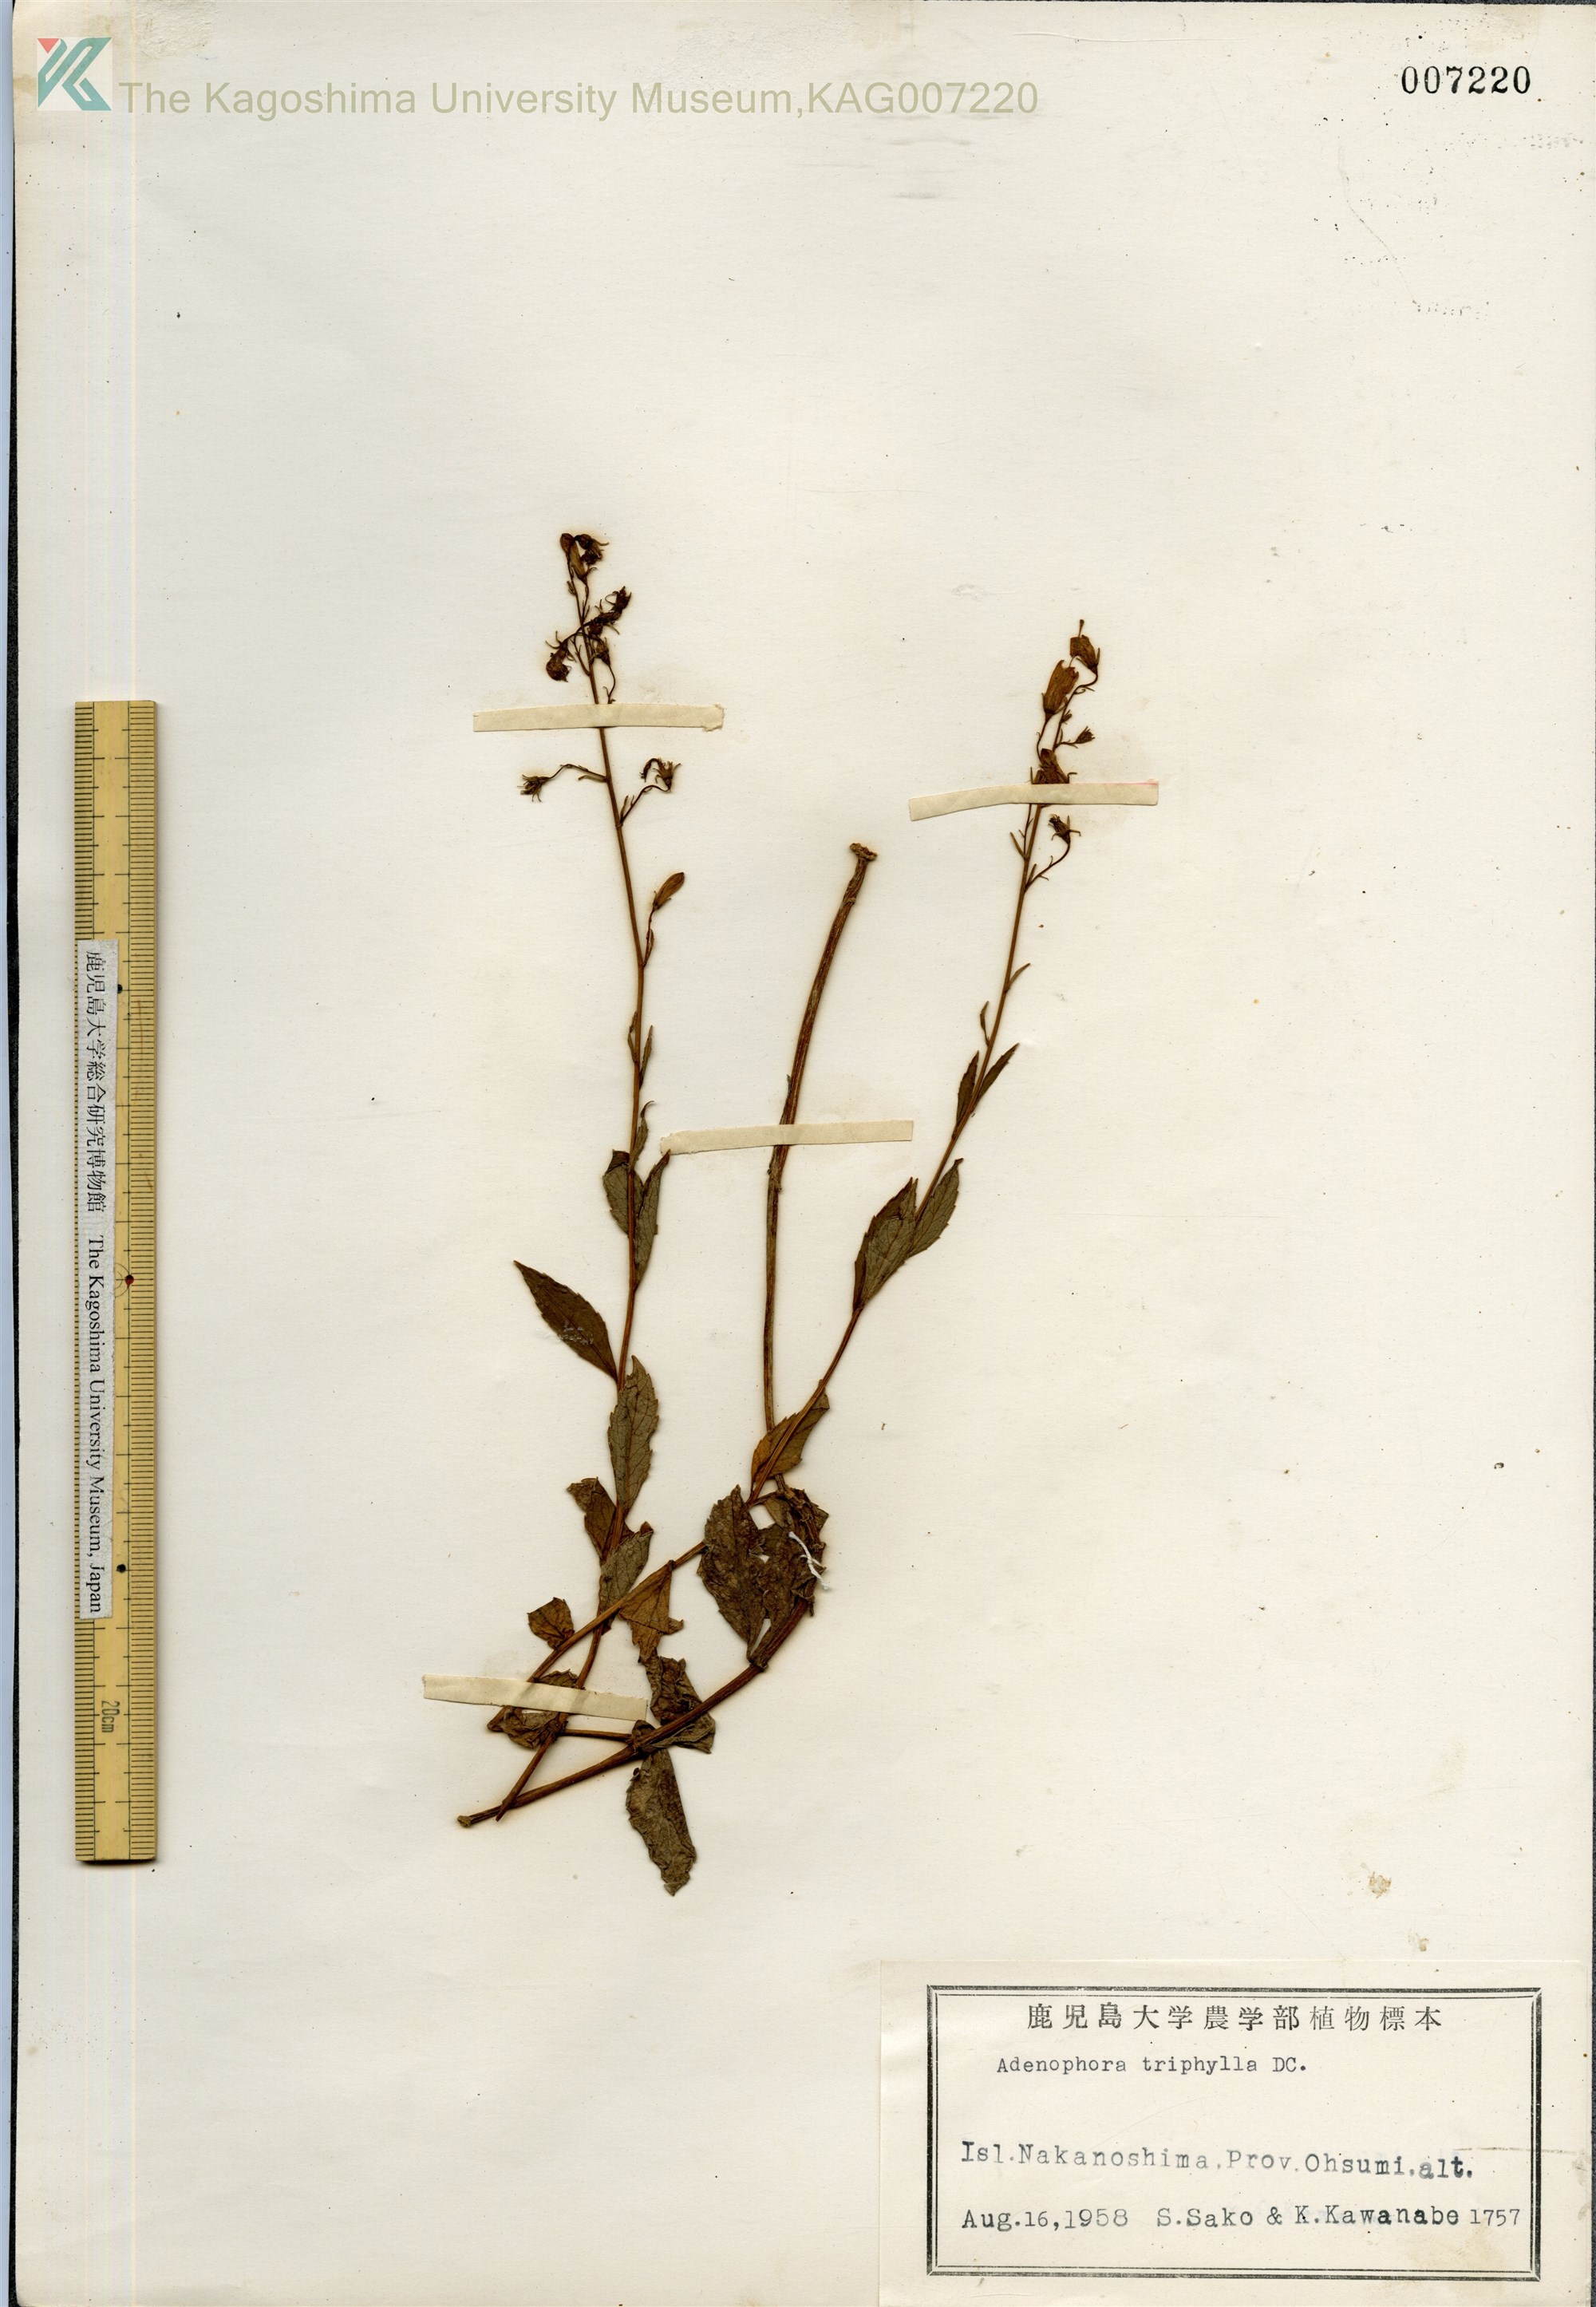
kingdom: Plantae
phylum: Tracheophyta
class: Magnoliopsida
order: Asterales
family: Campanulaceae
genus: Adenophora
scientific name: Adenophora tashiroi
